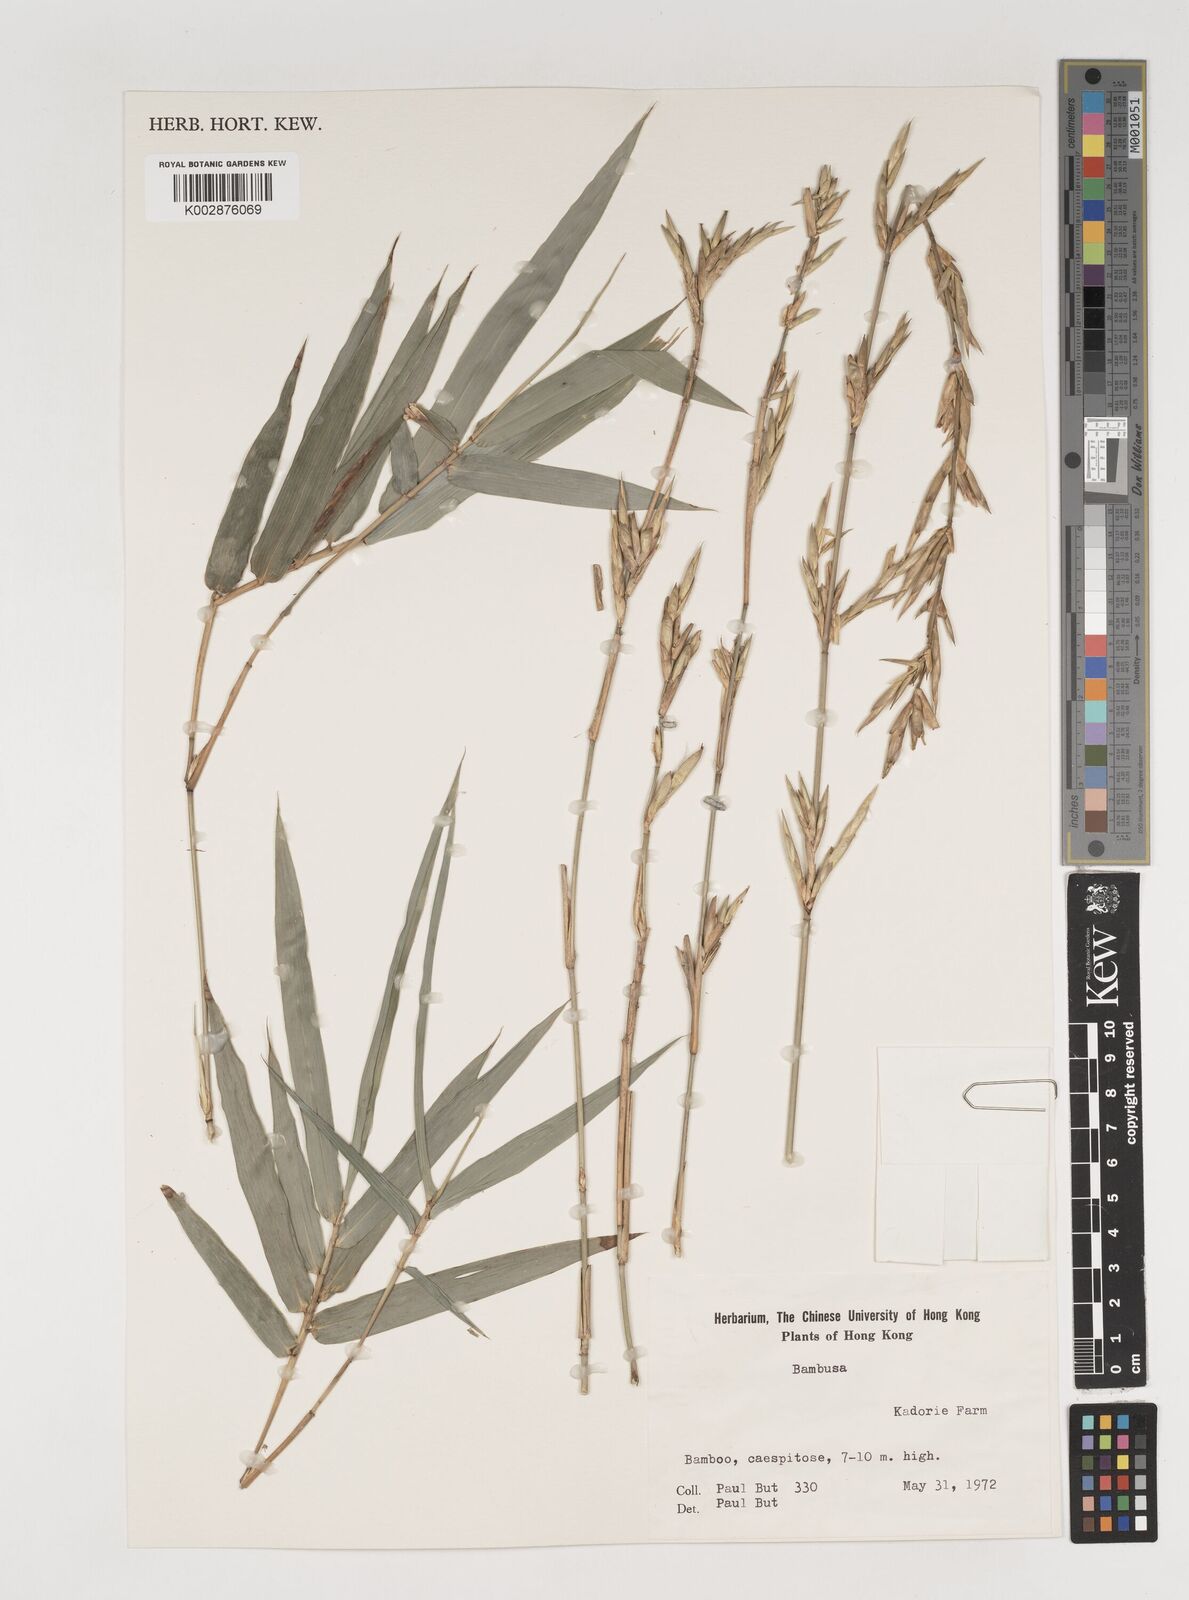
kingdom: Plantae
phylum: Tracheophyta
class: Liliopsida
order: Poales
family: Poaceae
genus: Bambusa
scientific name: Bambusa
